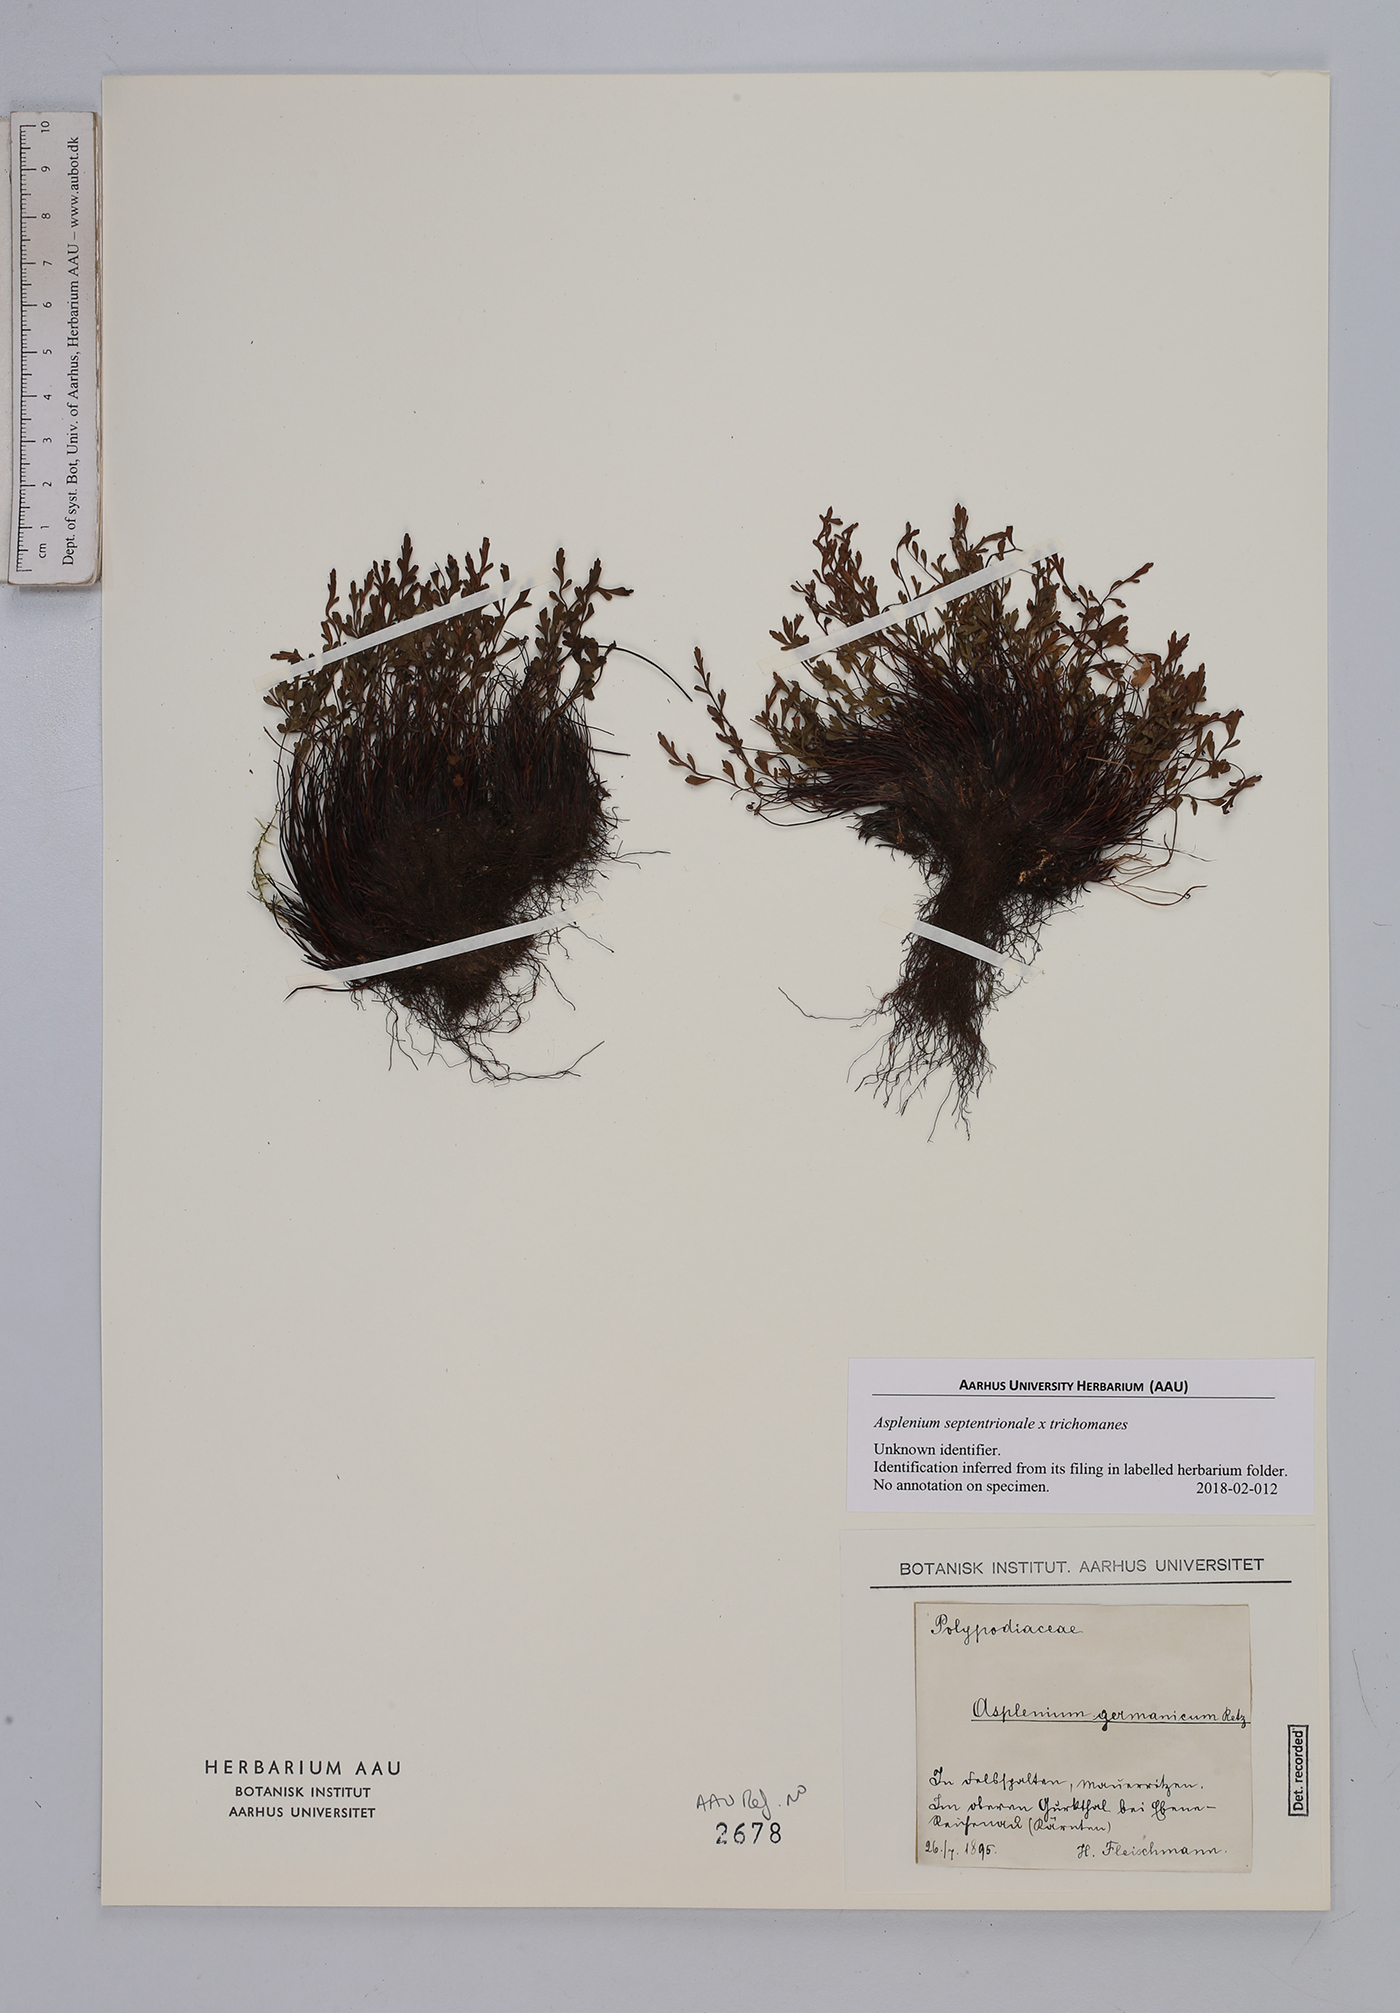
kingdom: Plantae
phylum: Tracheophyta
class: Polypodiopsida
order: Polypodiales
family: Aspleniaceae
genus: Asplenium
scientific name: Asplenium
